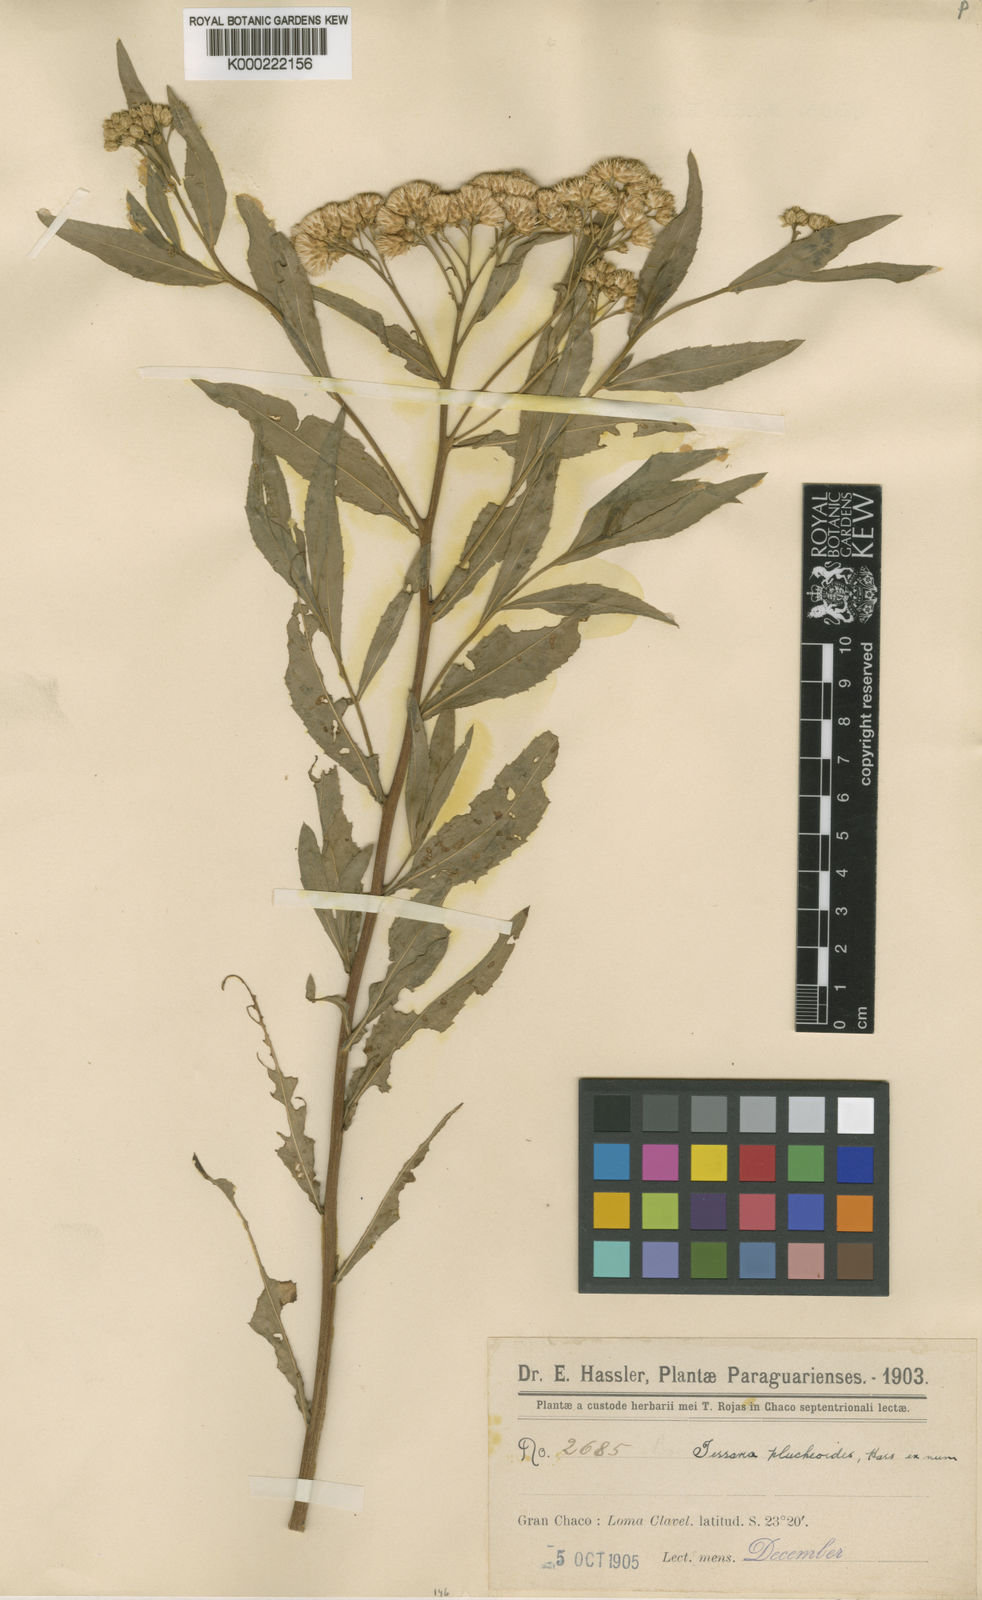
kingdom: Plantae
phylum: Tracheophyta
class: Magnoliopsida
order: Asterales
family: Asteraceae
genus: Tessaria
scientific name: Tessaria dodonaeifolia
